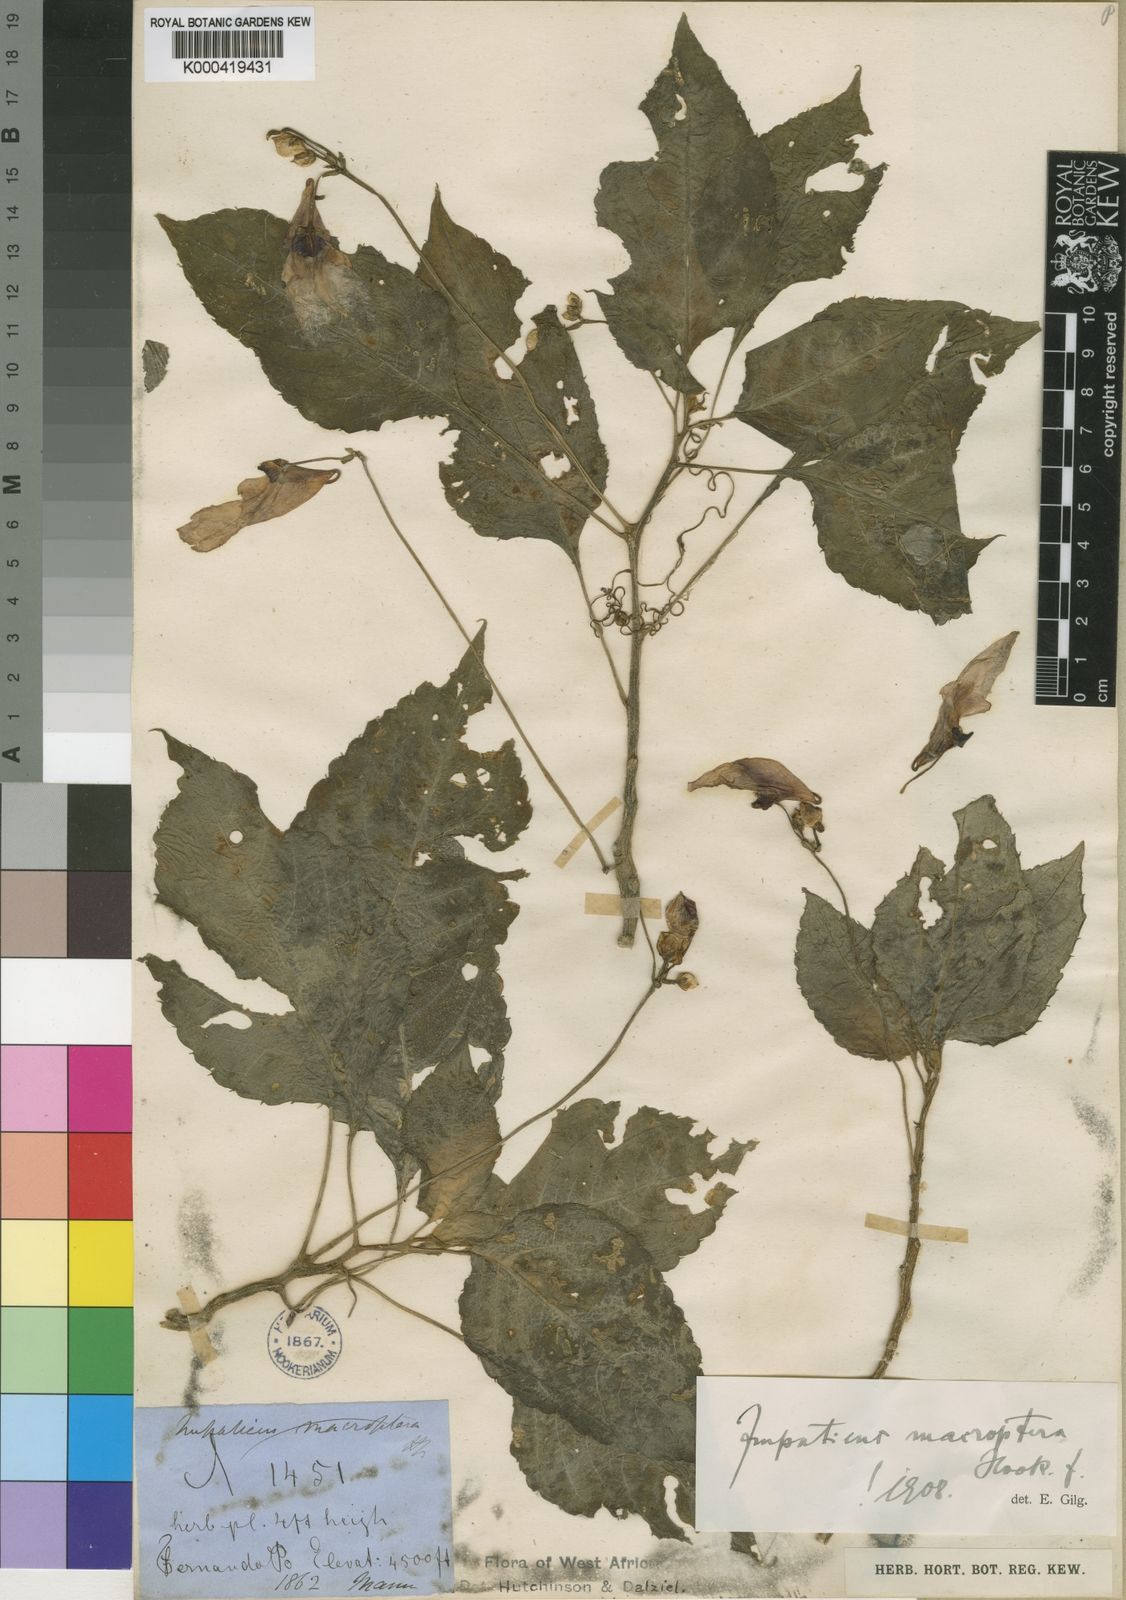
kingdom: Plantae
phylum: Tracheophyta
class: Magnoliopsida
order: Ericales
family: Balsaminaceae
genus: Impatiens
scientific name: Impatiens macroptera
